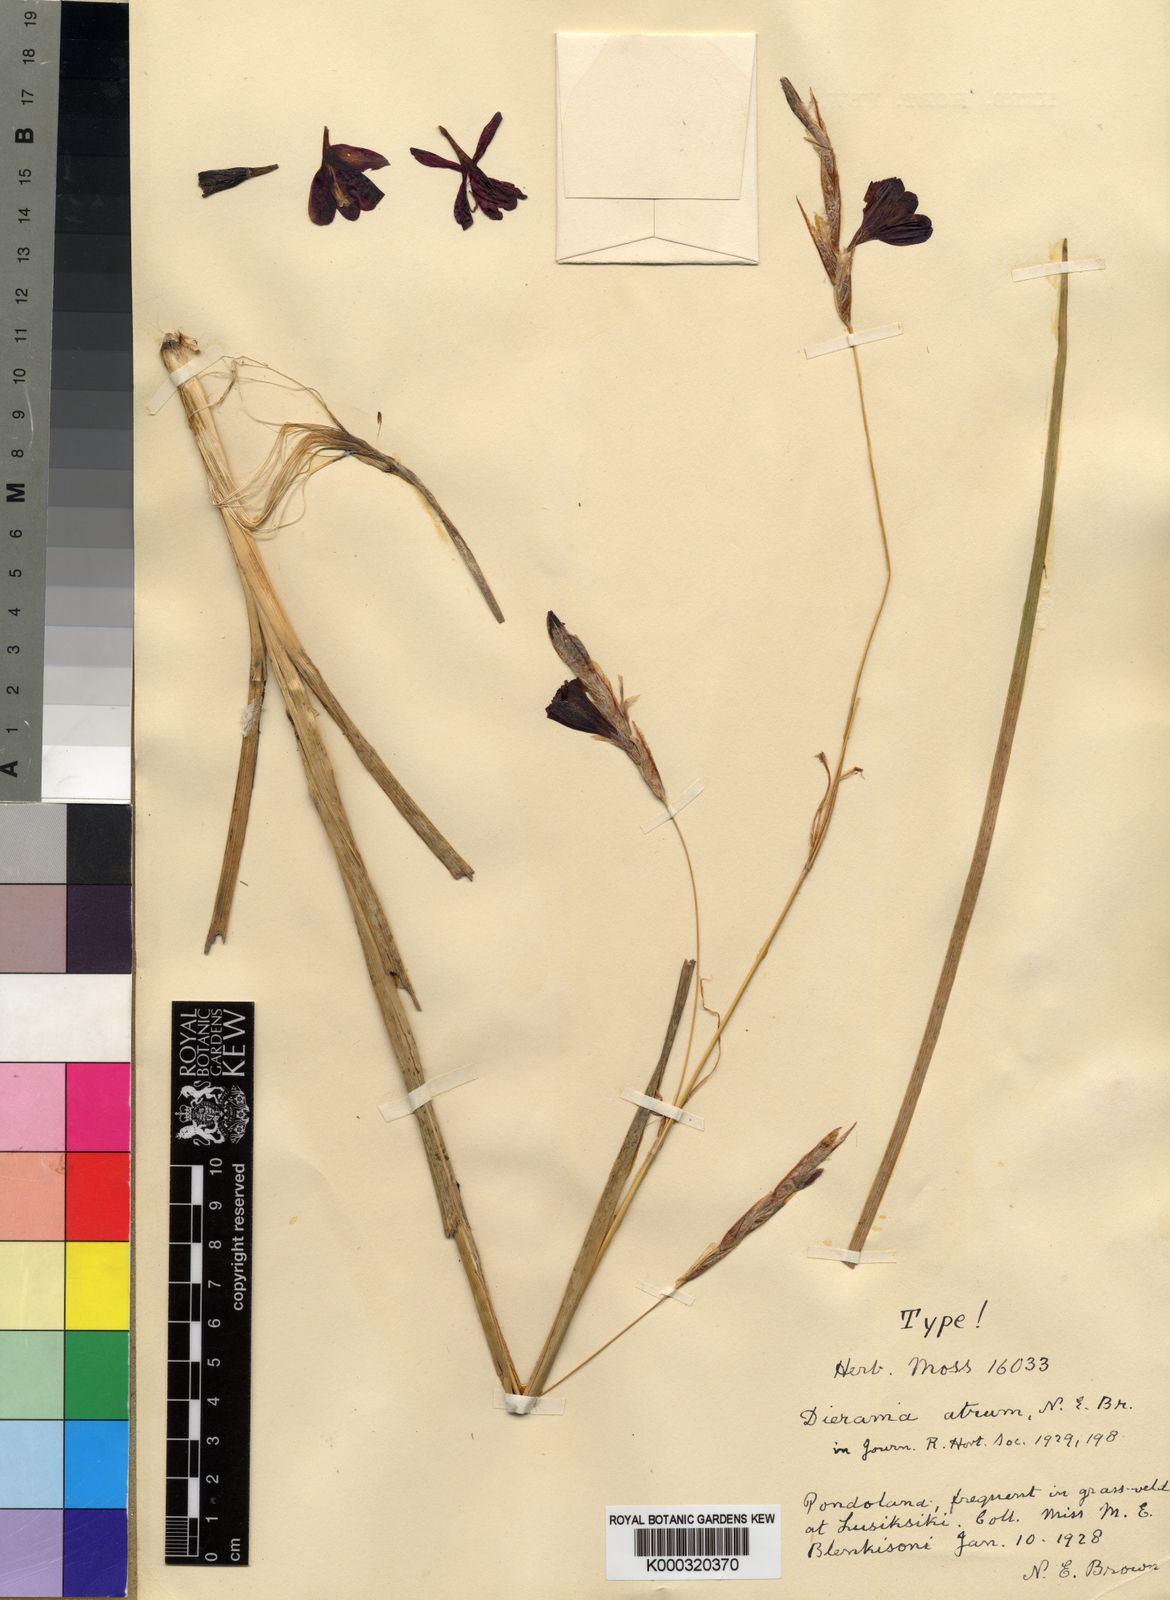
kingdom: Plantae
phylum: Tracheophyta
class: Liliopsida
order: Asparagales
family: Iridaceae
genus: Dierama
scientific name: Dierama atrum
